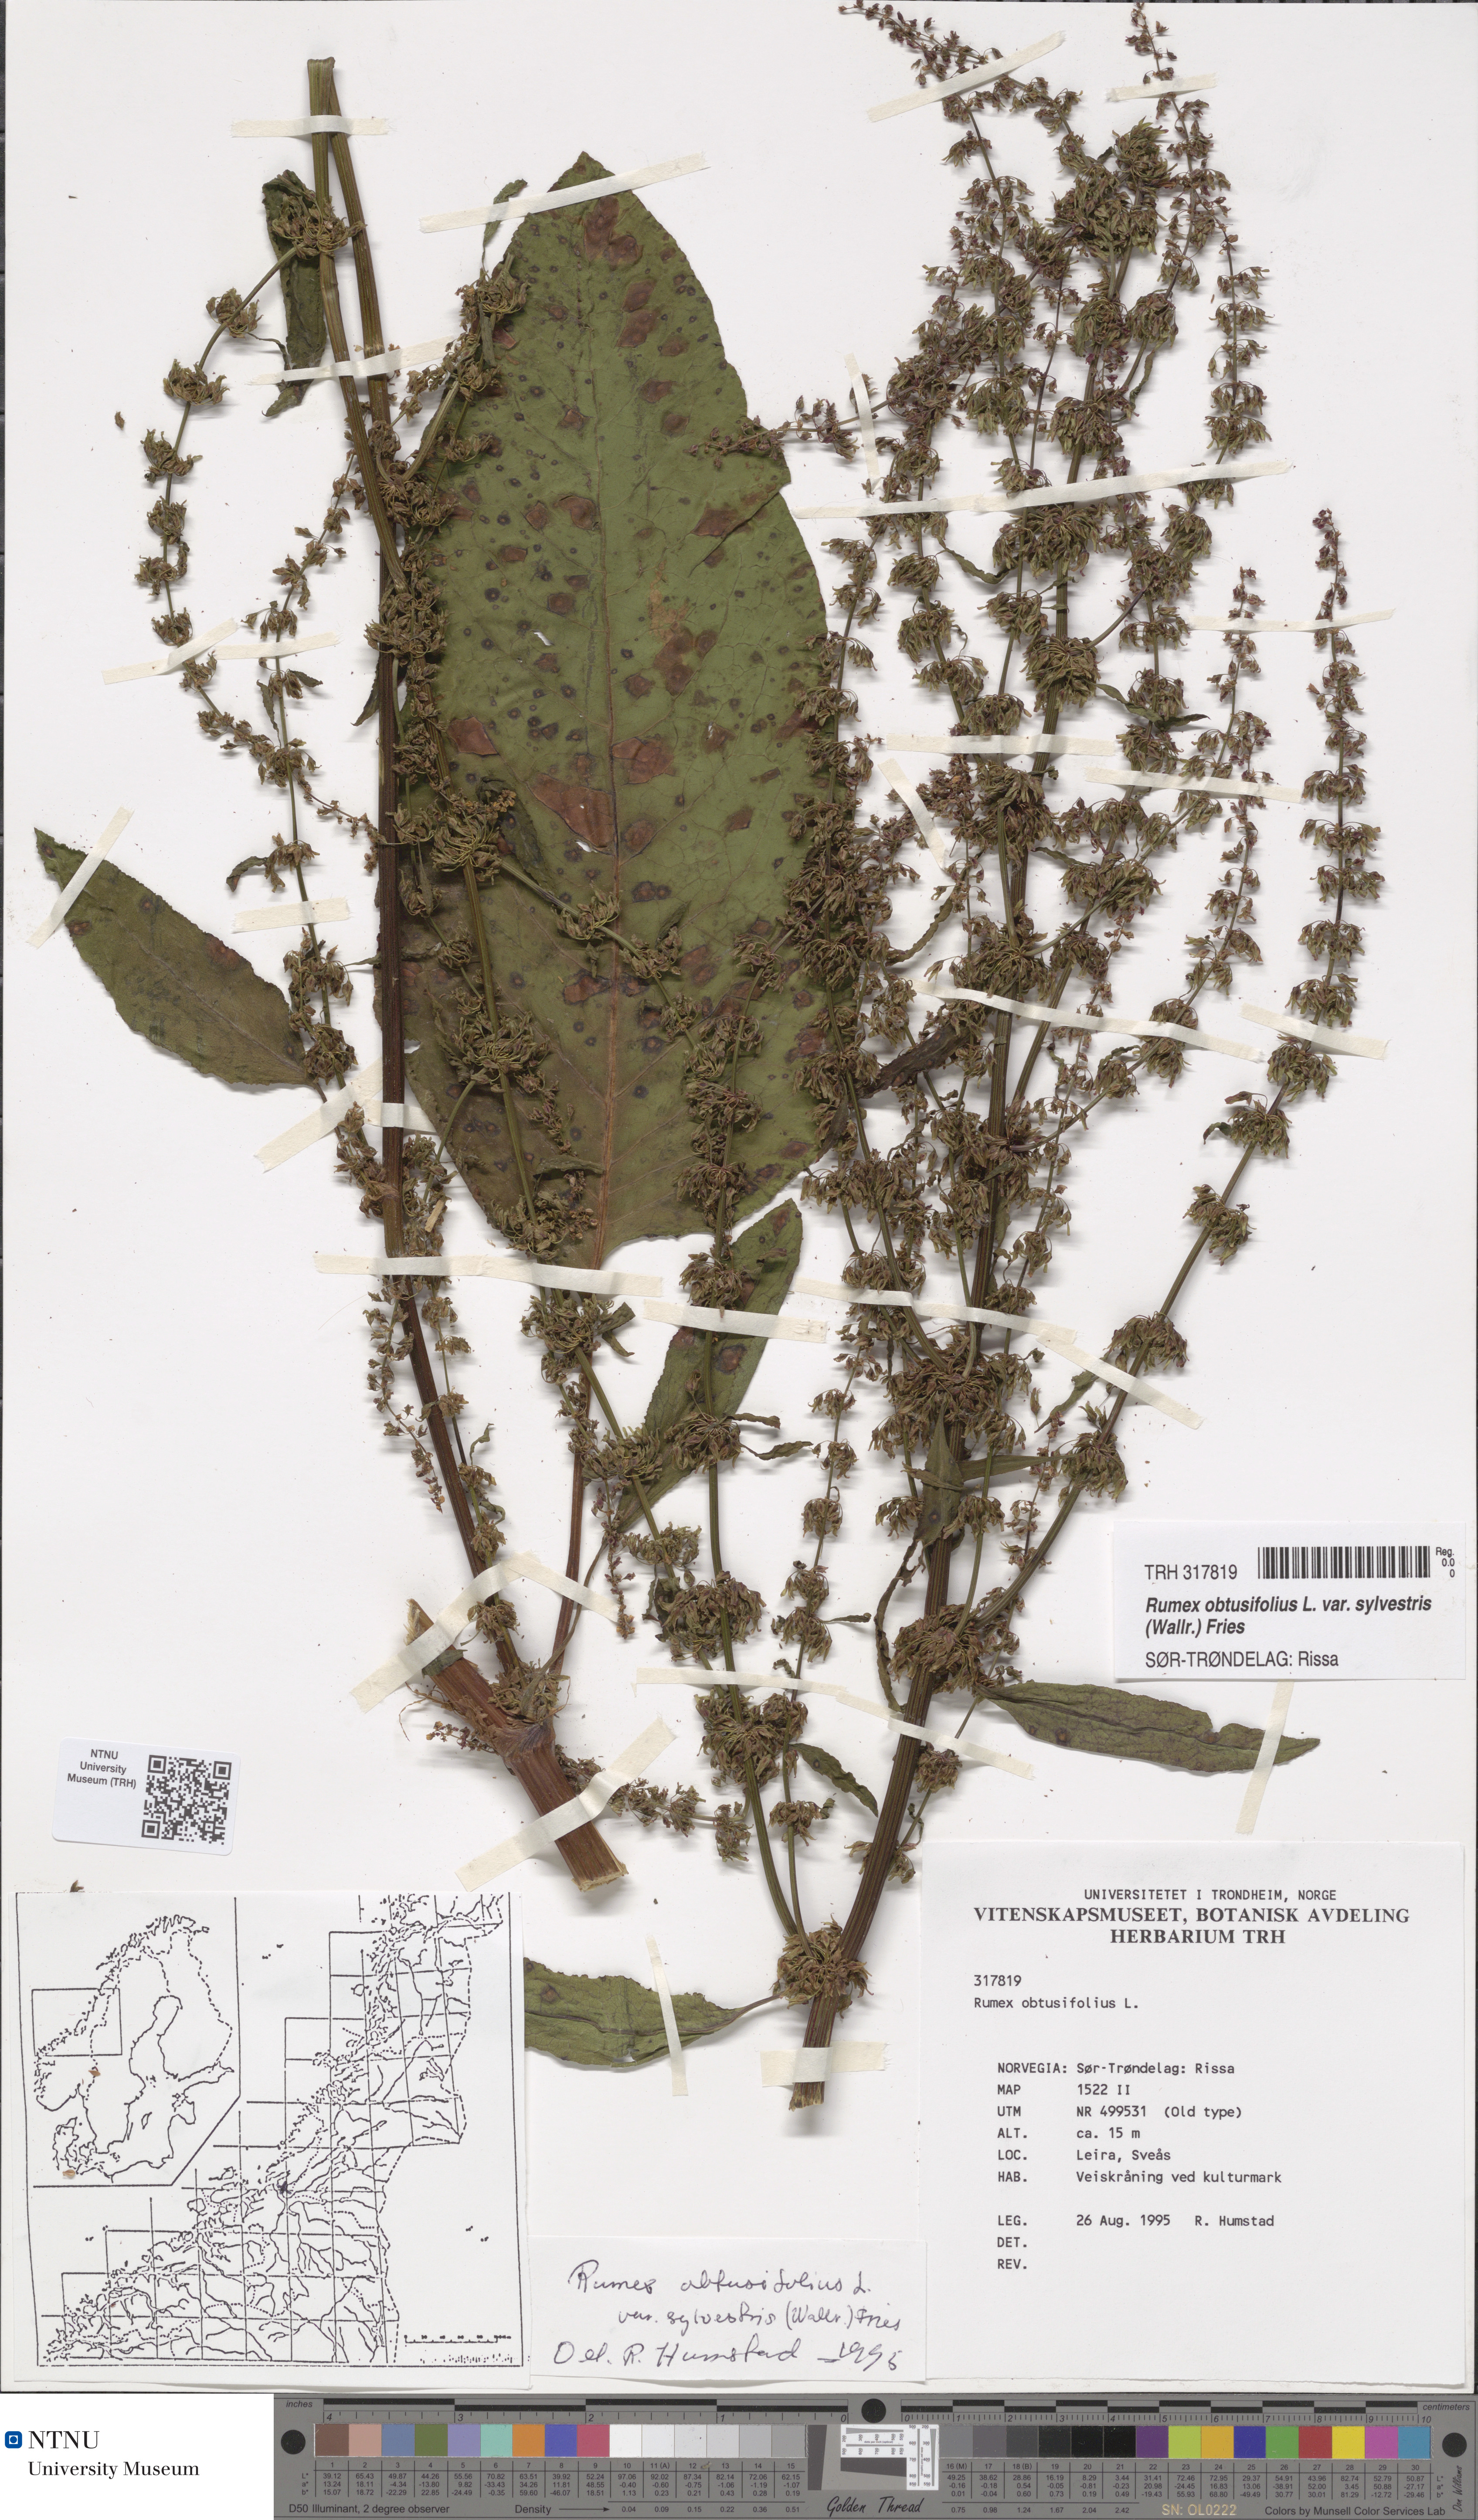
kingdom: Plantae
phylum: Tracheophyta
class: Magnoliopsida
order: Caryophyllales
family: Polygonaceae
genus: Rumex
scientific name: Rumex obtusifolius
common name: Bitter dock
